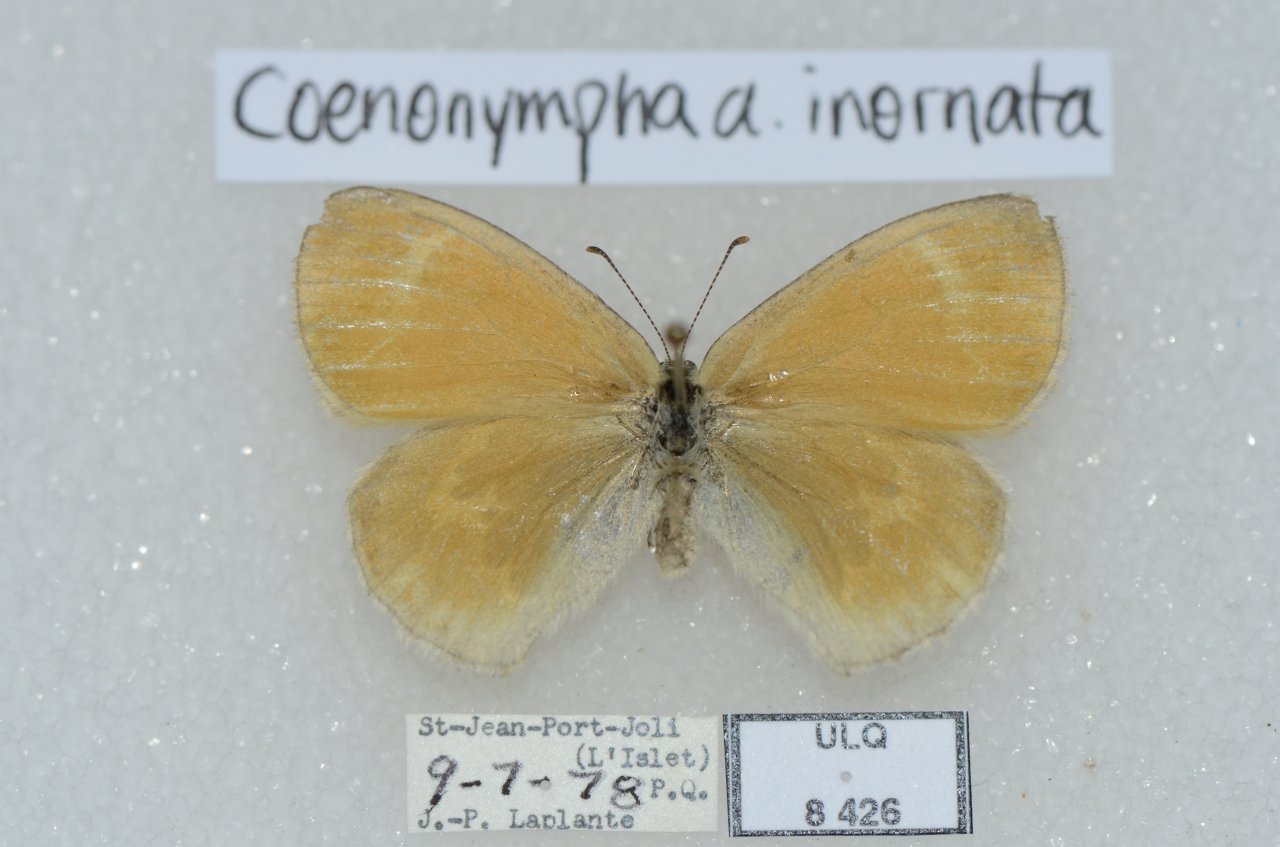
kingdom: Animalia
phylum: Arthropoda
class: Insecta
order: Lepidoptera
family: Nymphalidae
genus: Coenonympha
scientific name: Coenonympha tullia
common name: Large Heath
